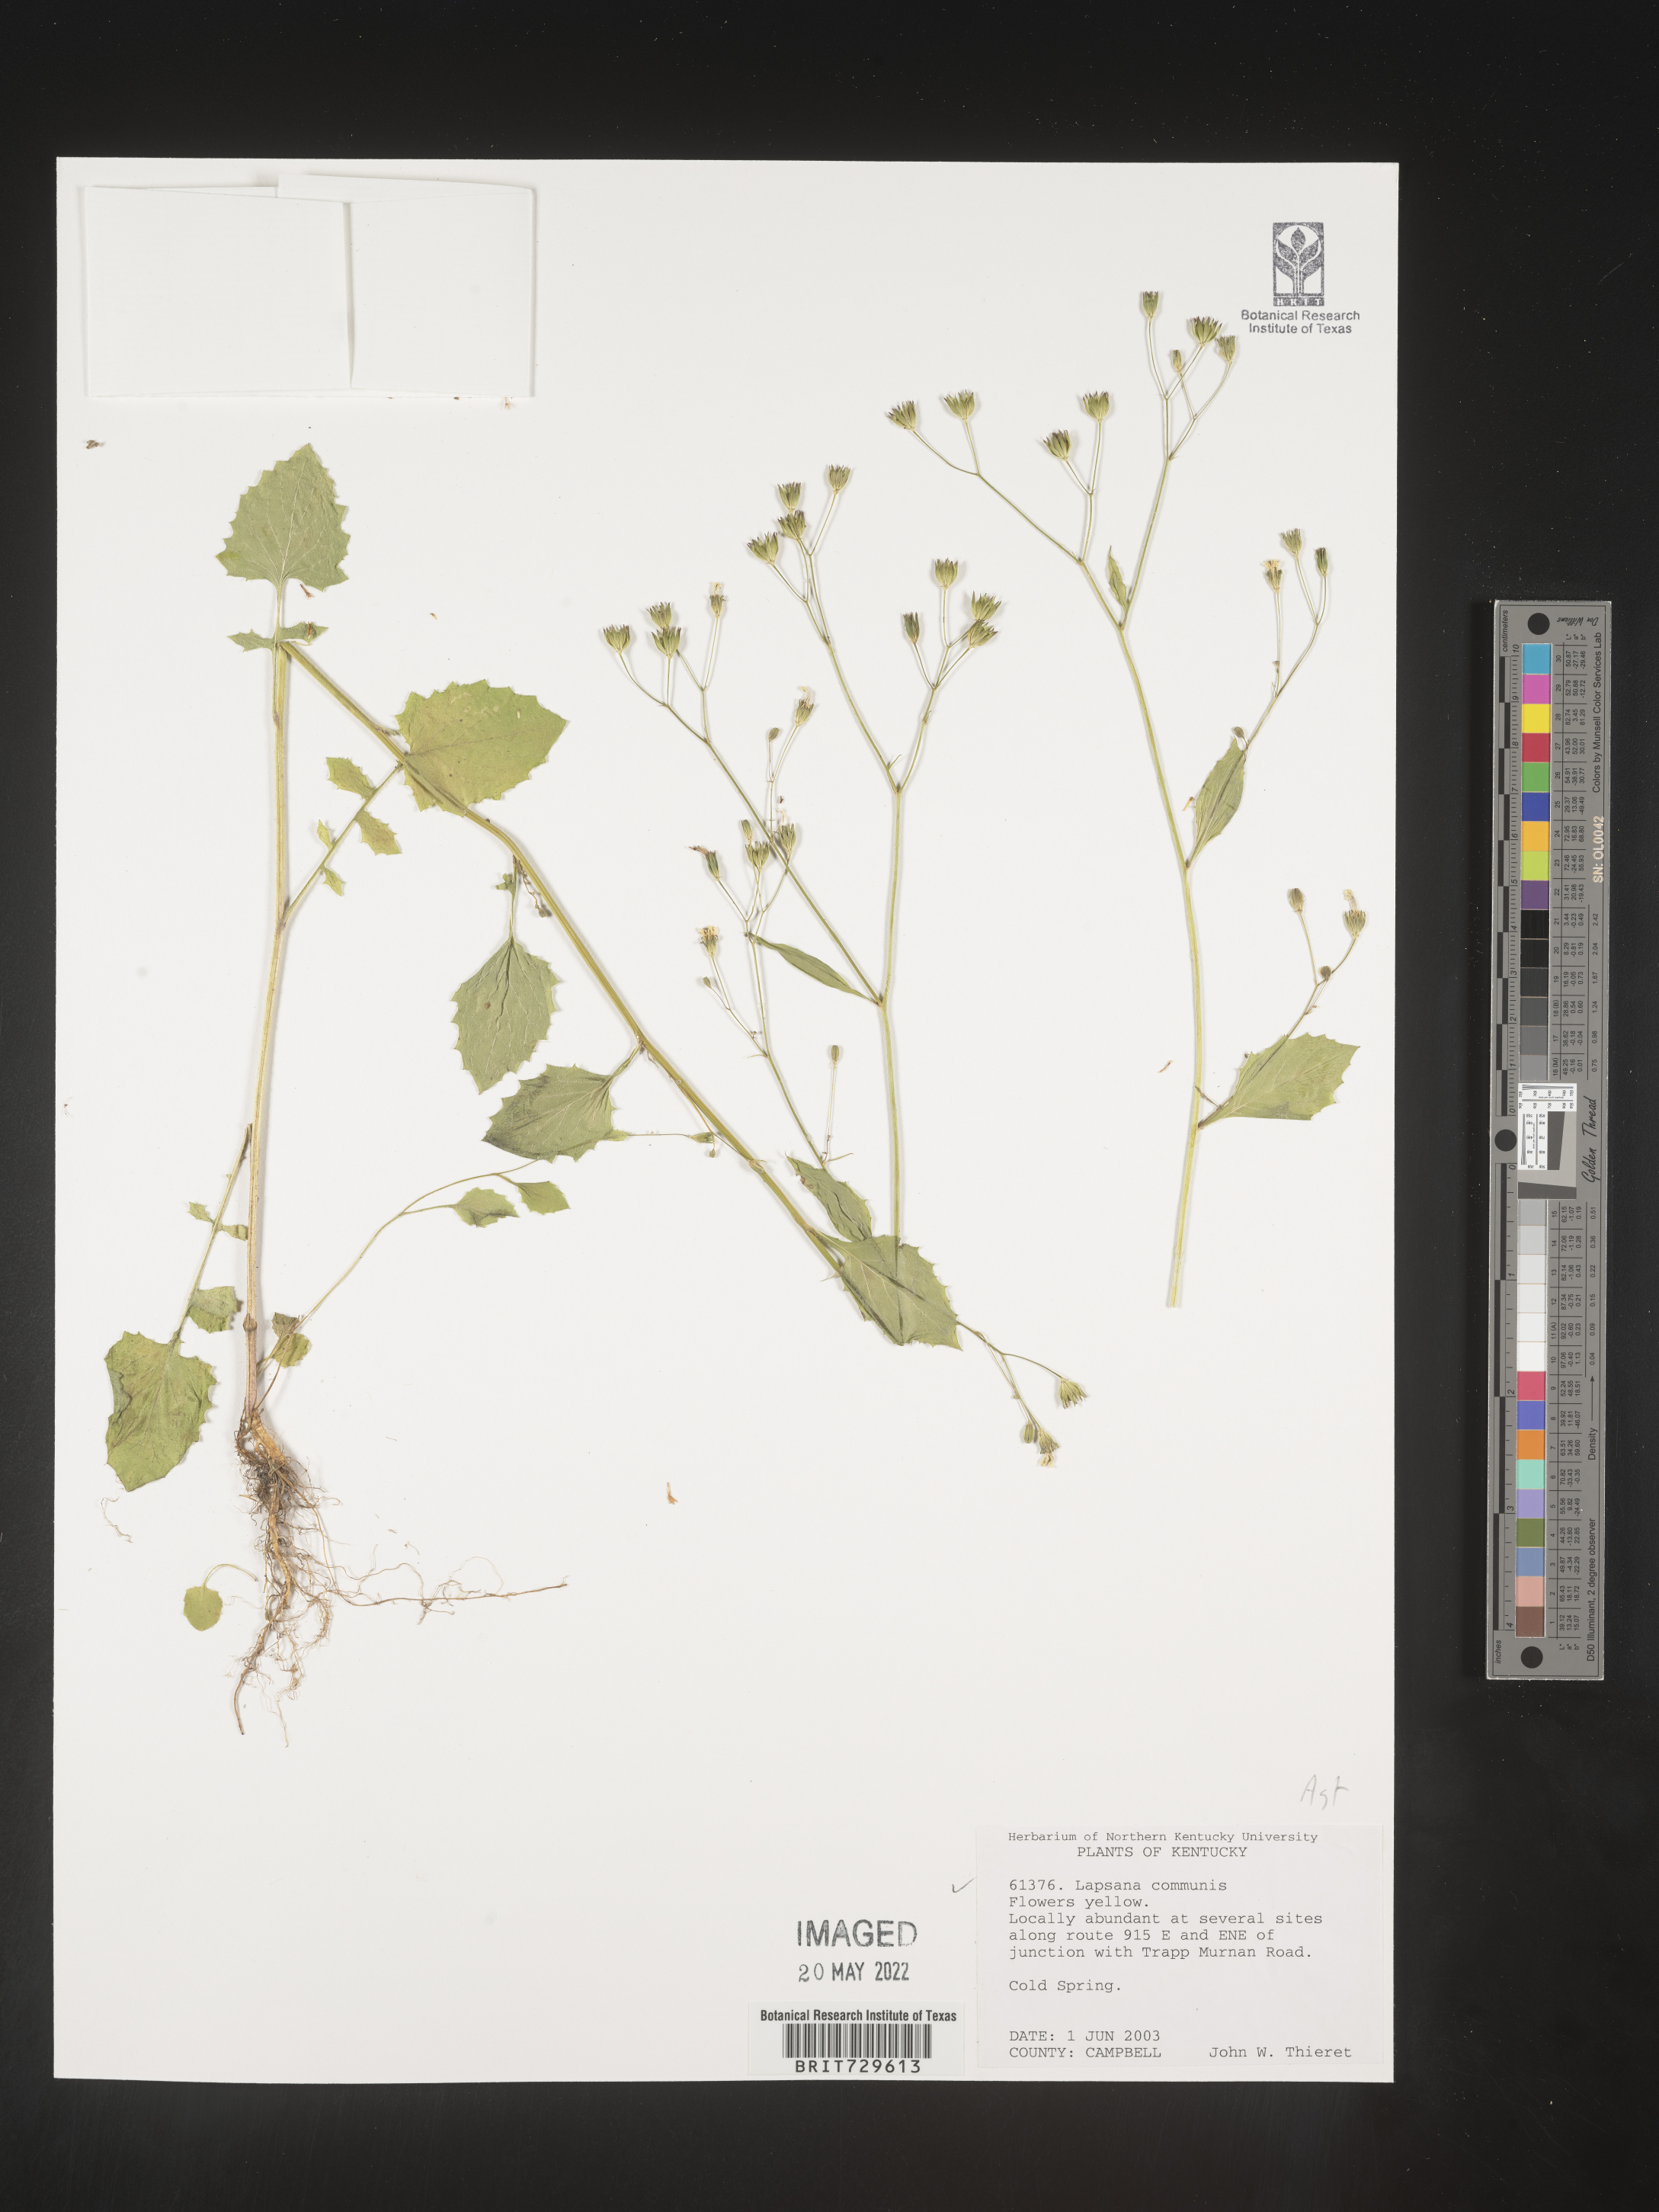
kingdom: Plantae
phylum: Tracheophyta
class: Magnoliopsida
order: Asterales
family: Asteraceae
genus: Lapsana
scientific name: Lapsana
